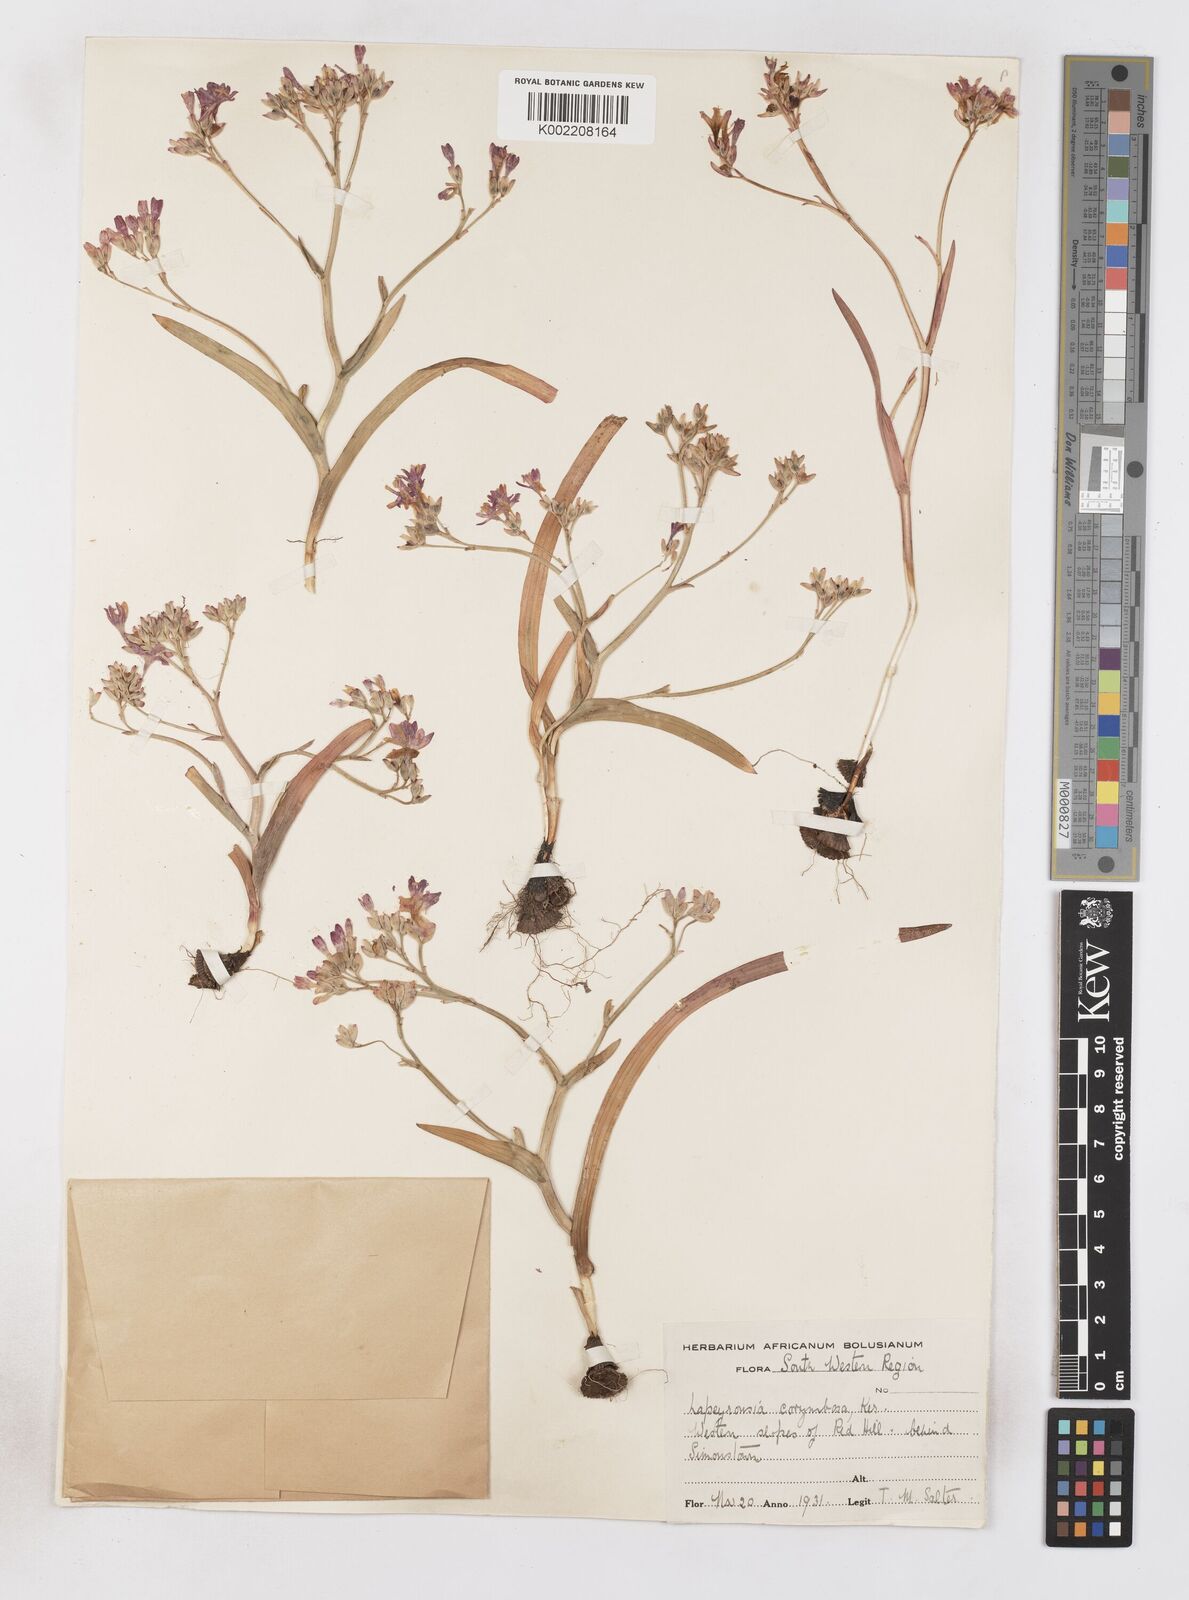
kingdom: Plantae
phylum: Tracheophyta
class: Liliopsida
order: Asparagales
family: Iridaceae
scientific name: Iridaceae
